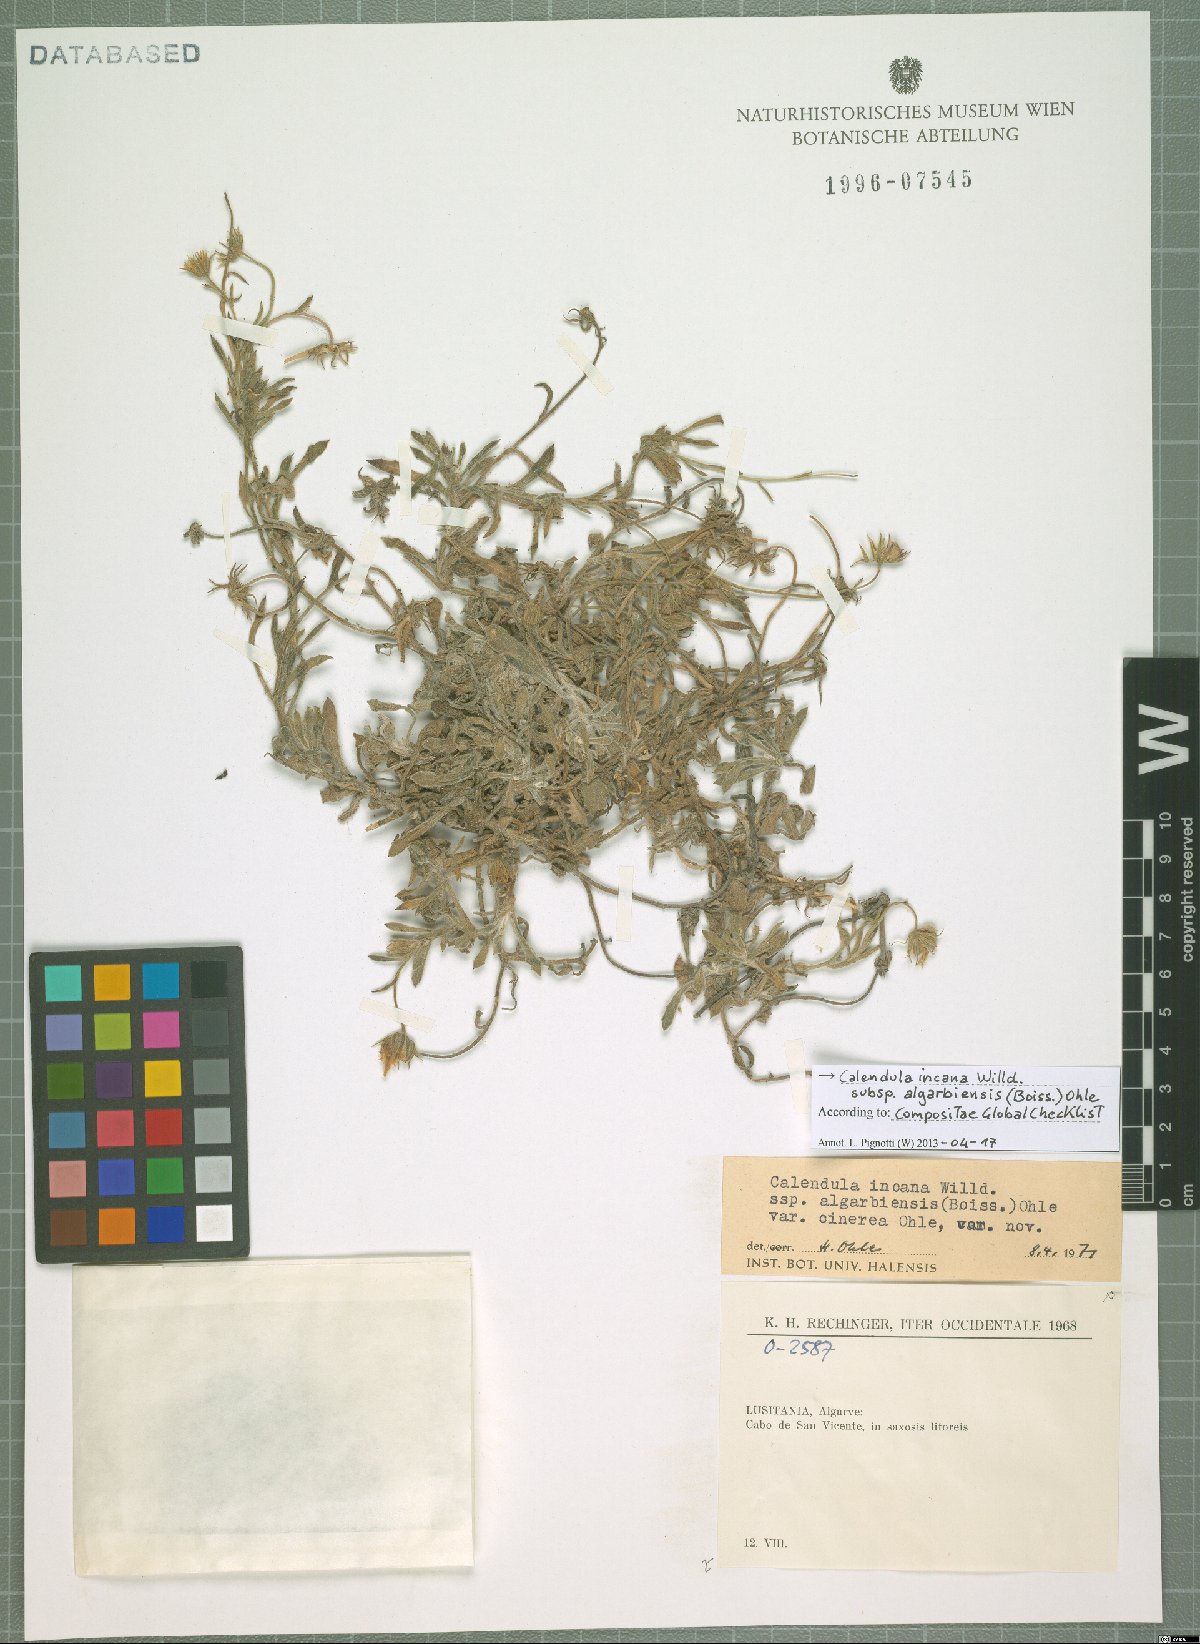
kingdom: Plantae
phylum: Tracheophyta
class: Magnoliopsida
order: Asterales
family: Asteraceae
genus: Calendula
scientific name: Calendula suffruticosa
